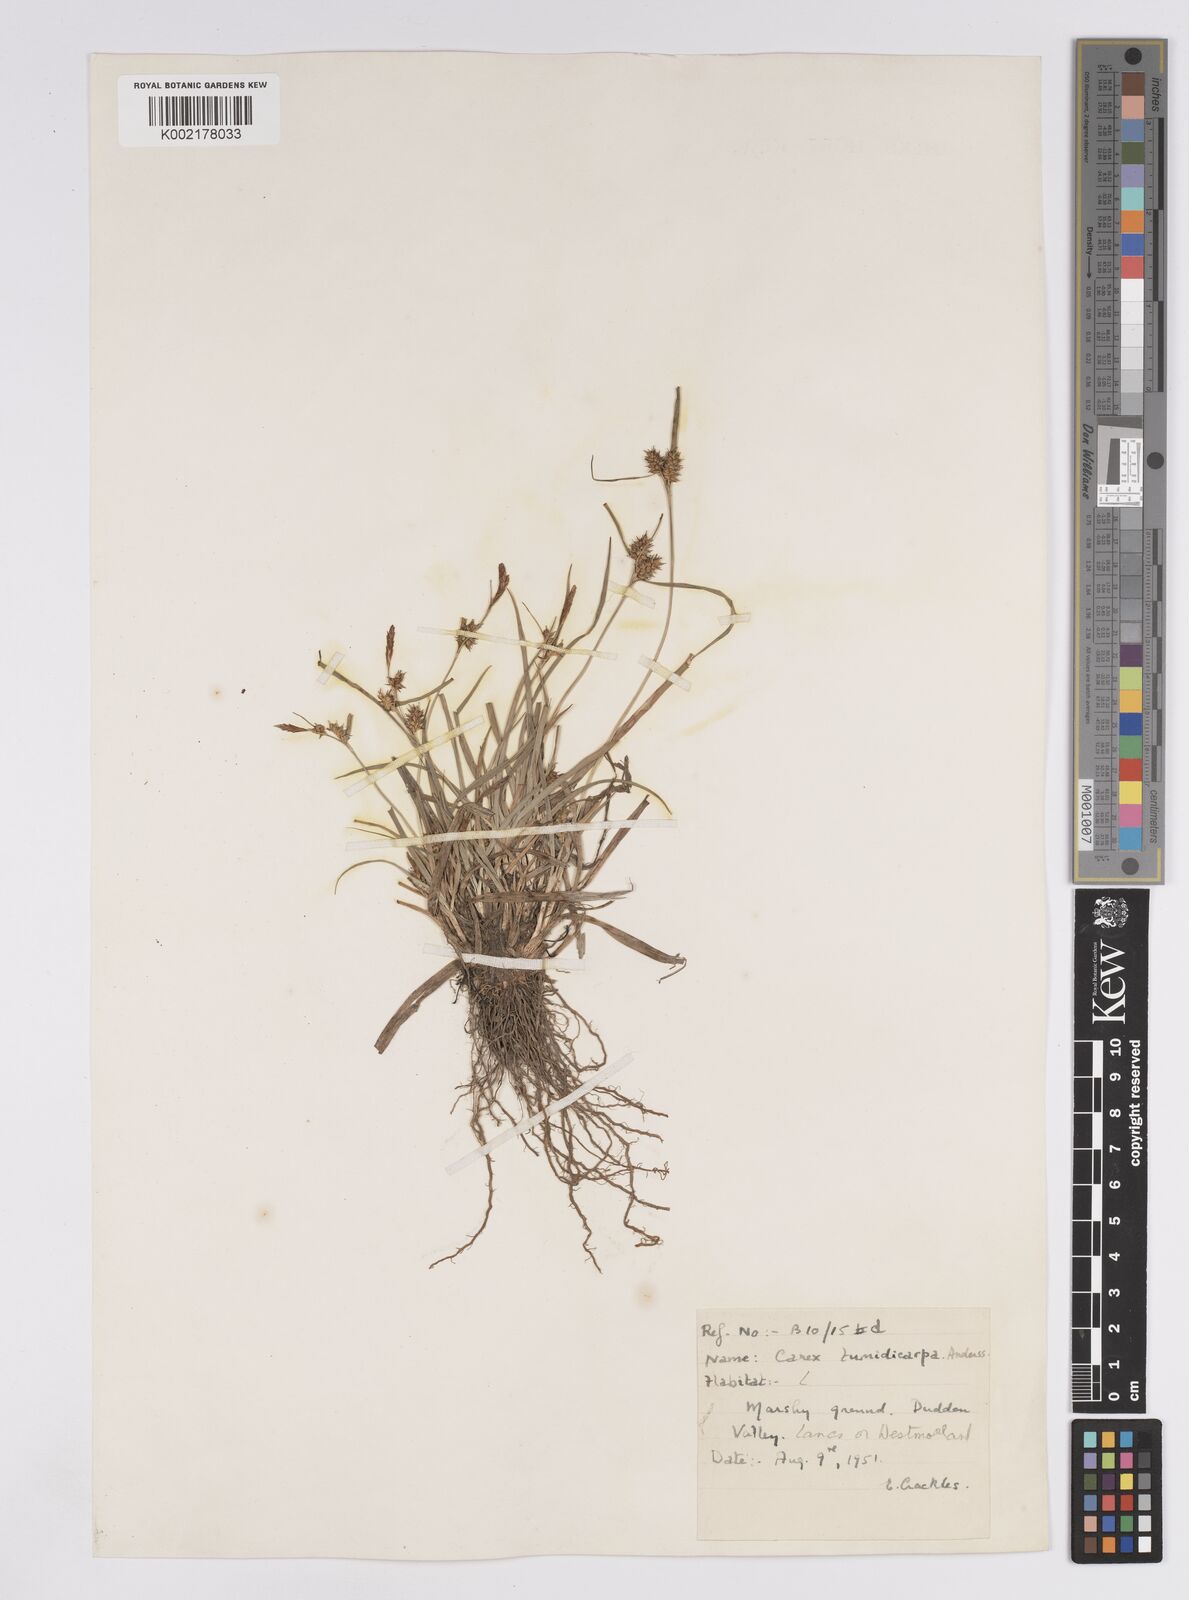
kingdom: Plantae
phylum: Tracheophyta
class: Liliopsida
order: Poales
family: Cyperaceae
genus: Carex
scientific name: Carex demissa
